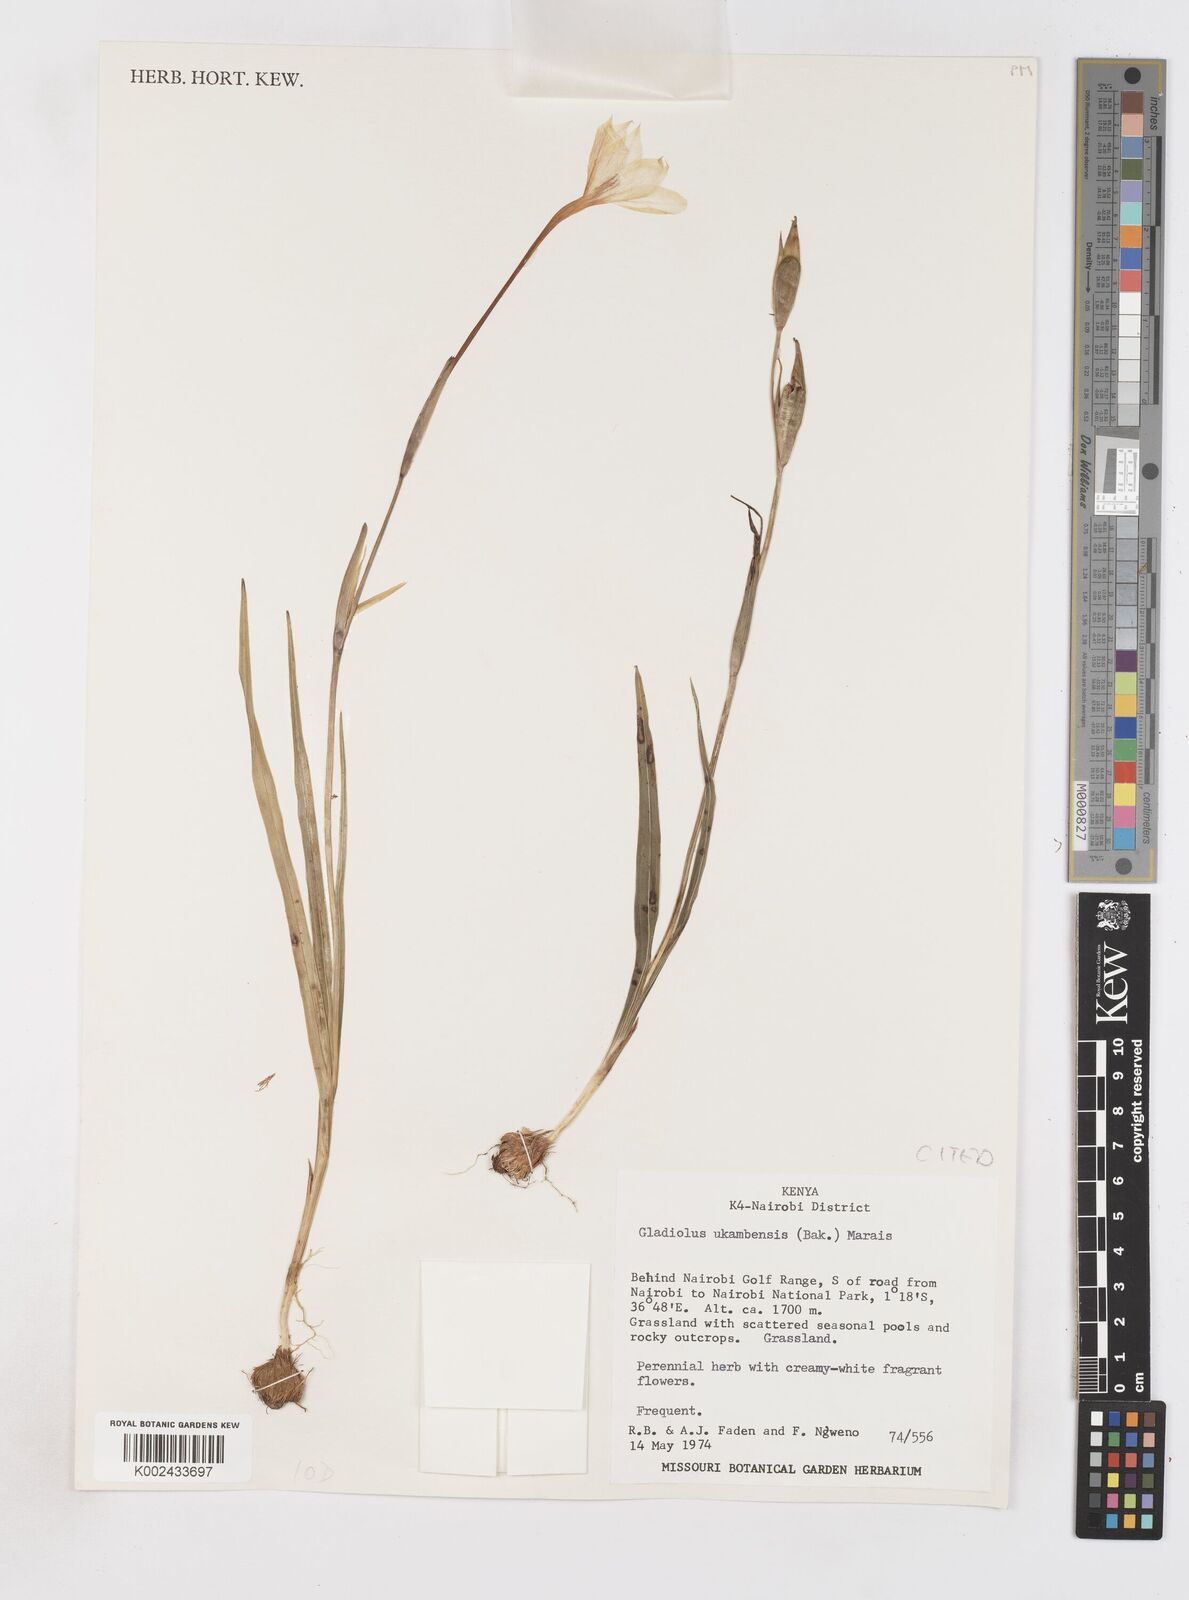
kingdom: Plantae
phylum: Tracheophyta
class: Liliopsida
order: Asparagales
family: Iridaceae
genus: Gladiolus
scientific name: Gladiolus candidus
